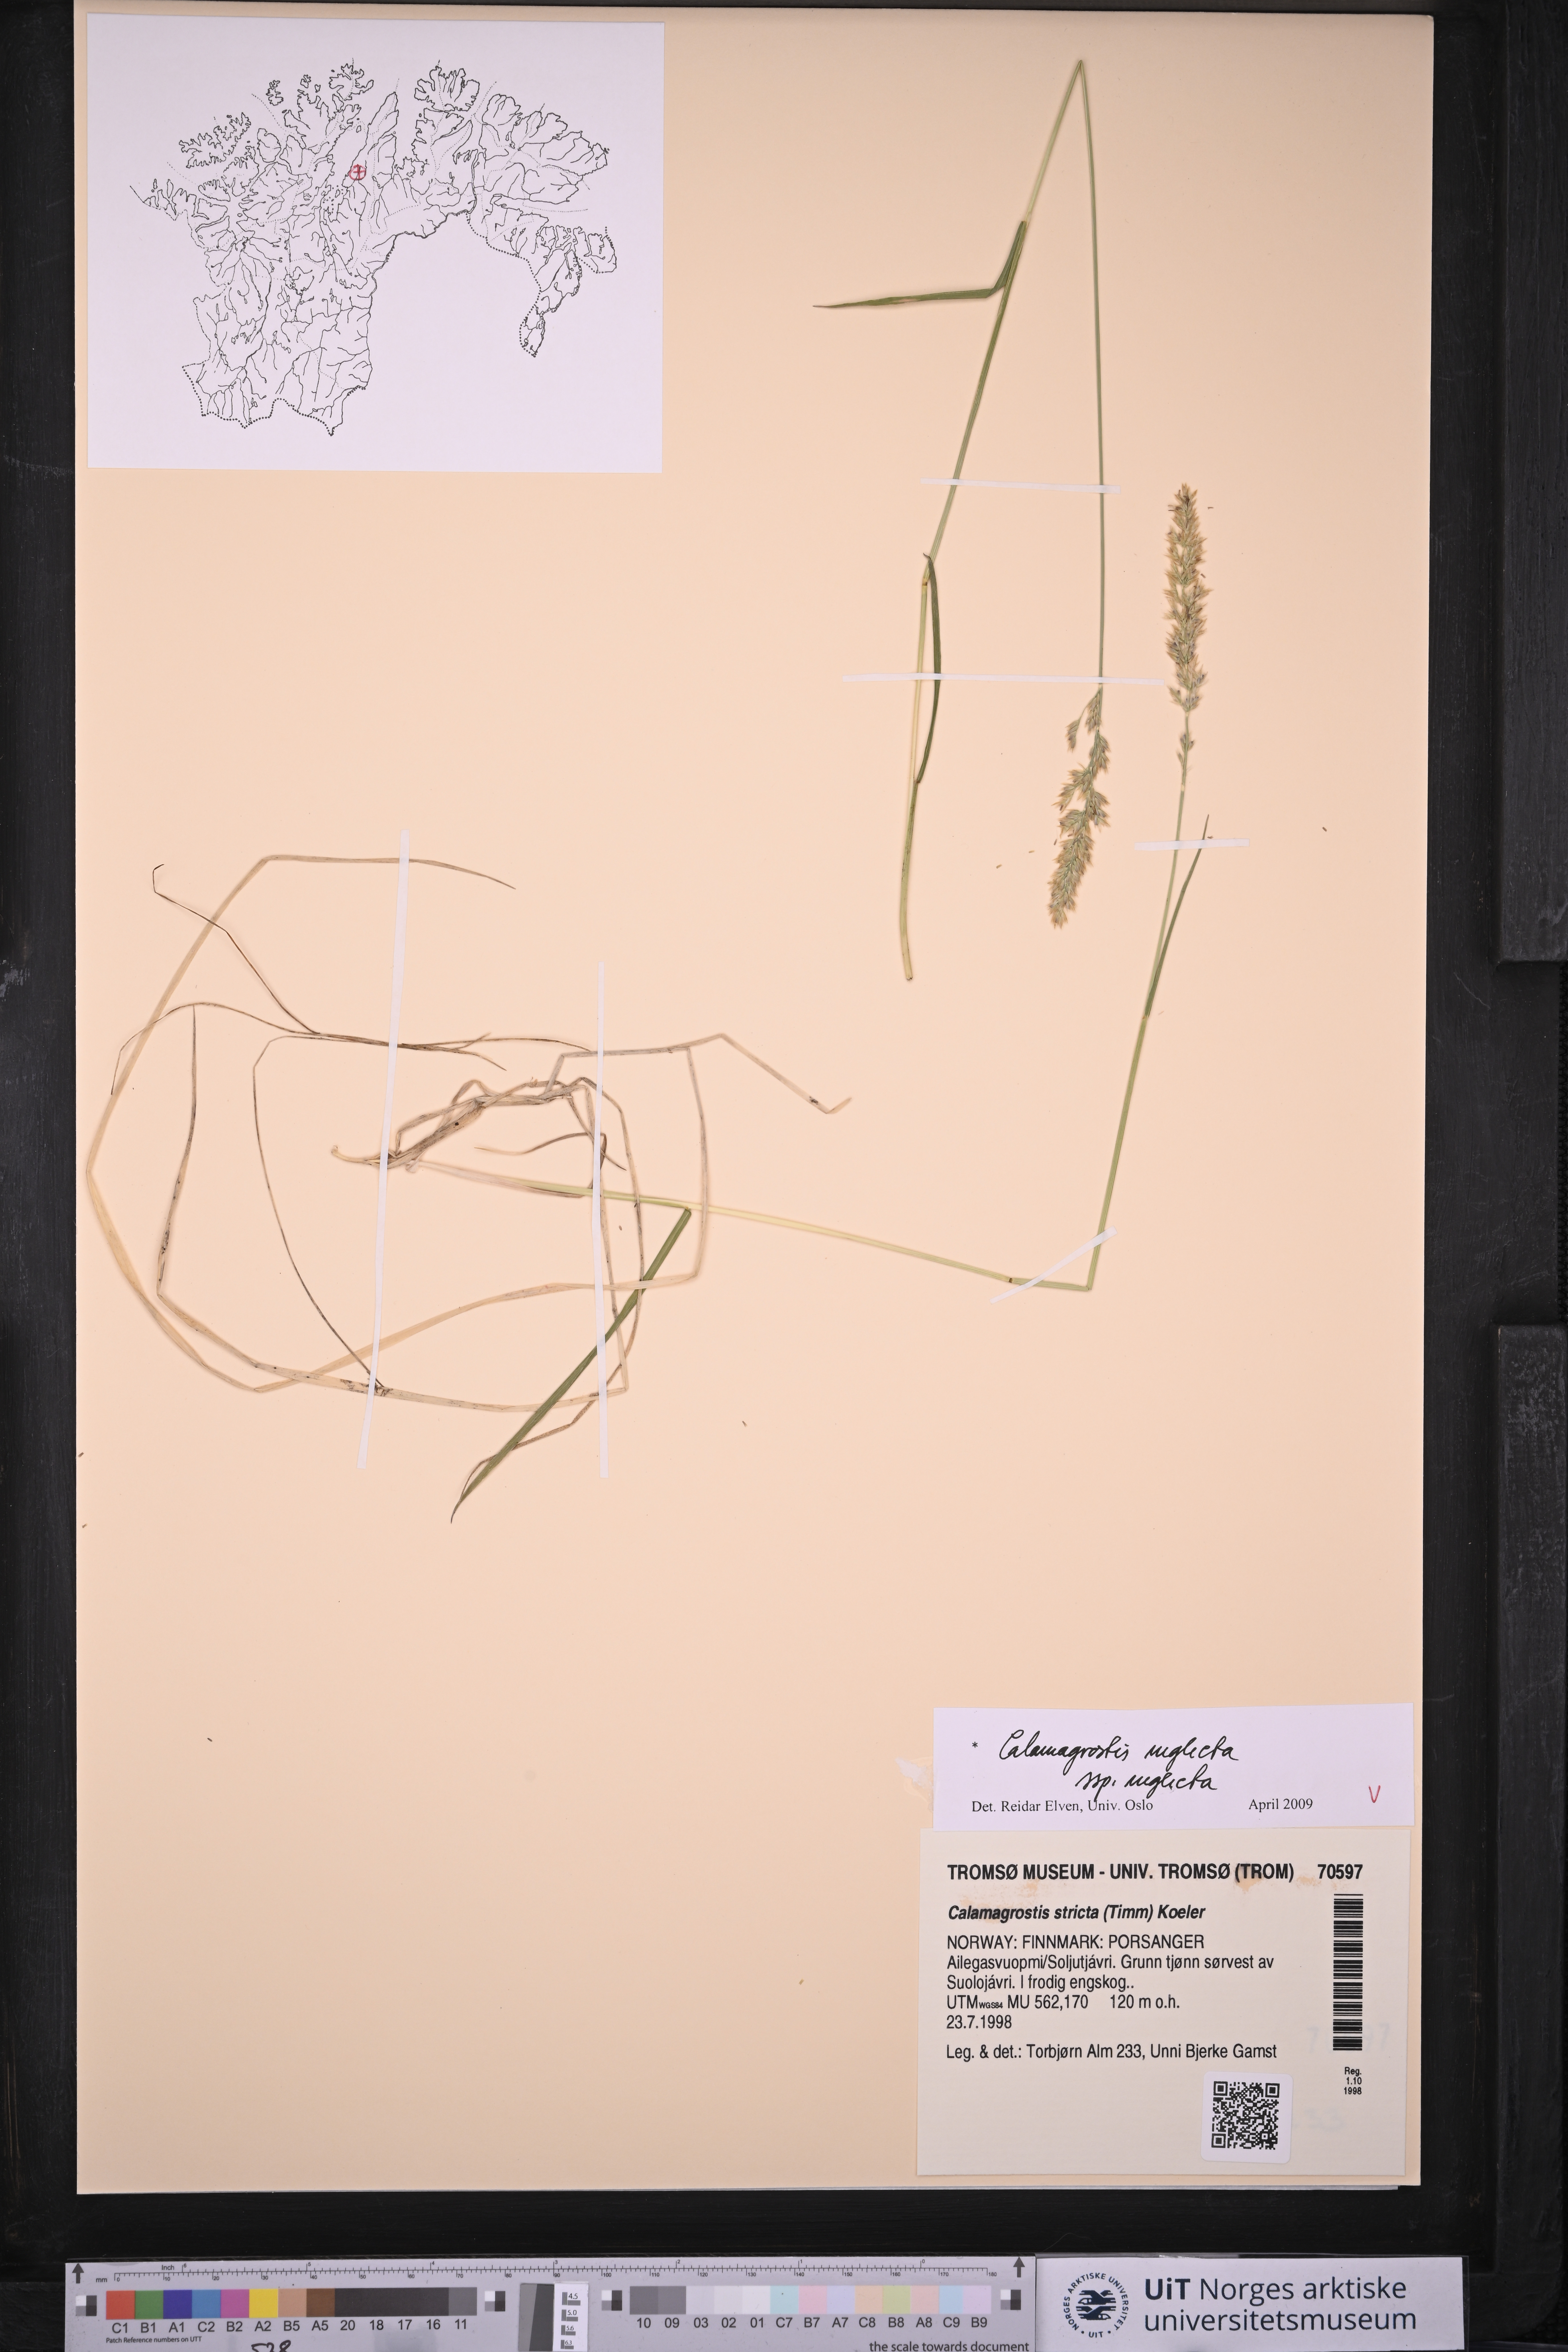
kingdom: Plantae
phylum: Tracheophyta
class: Liliopsida
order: Poales
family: Poaceae
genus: Achnatherum
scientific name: Achnatherum calamagrostis
